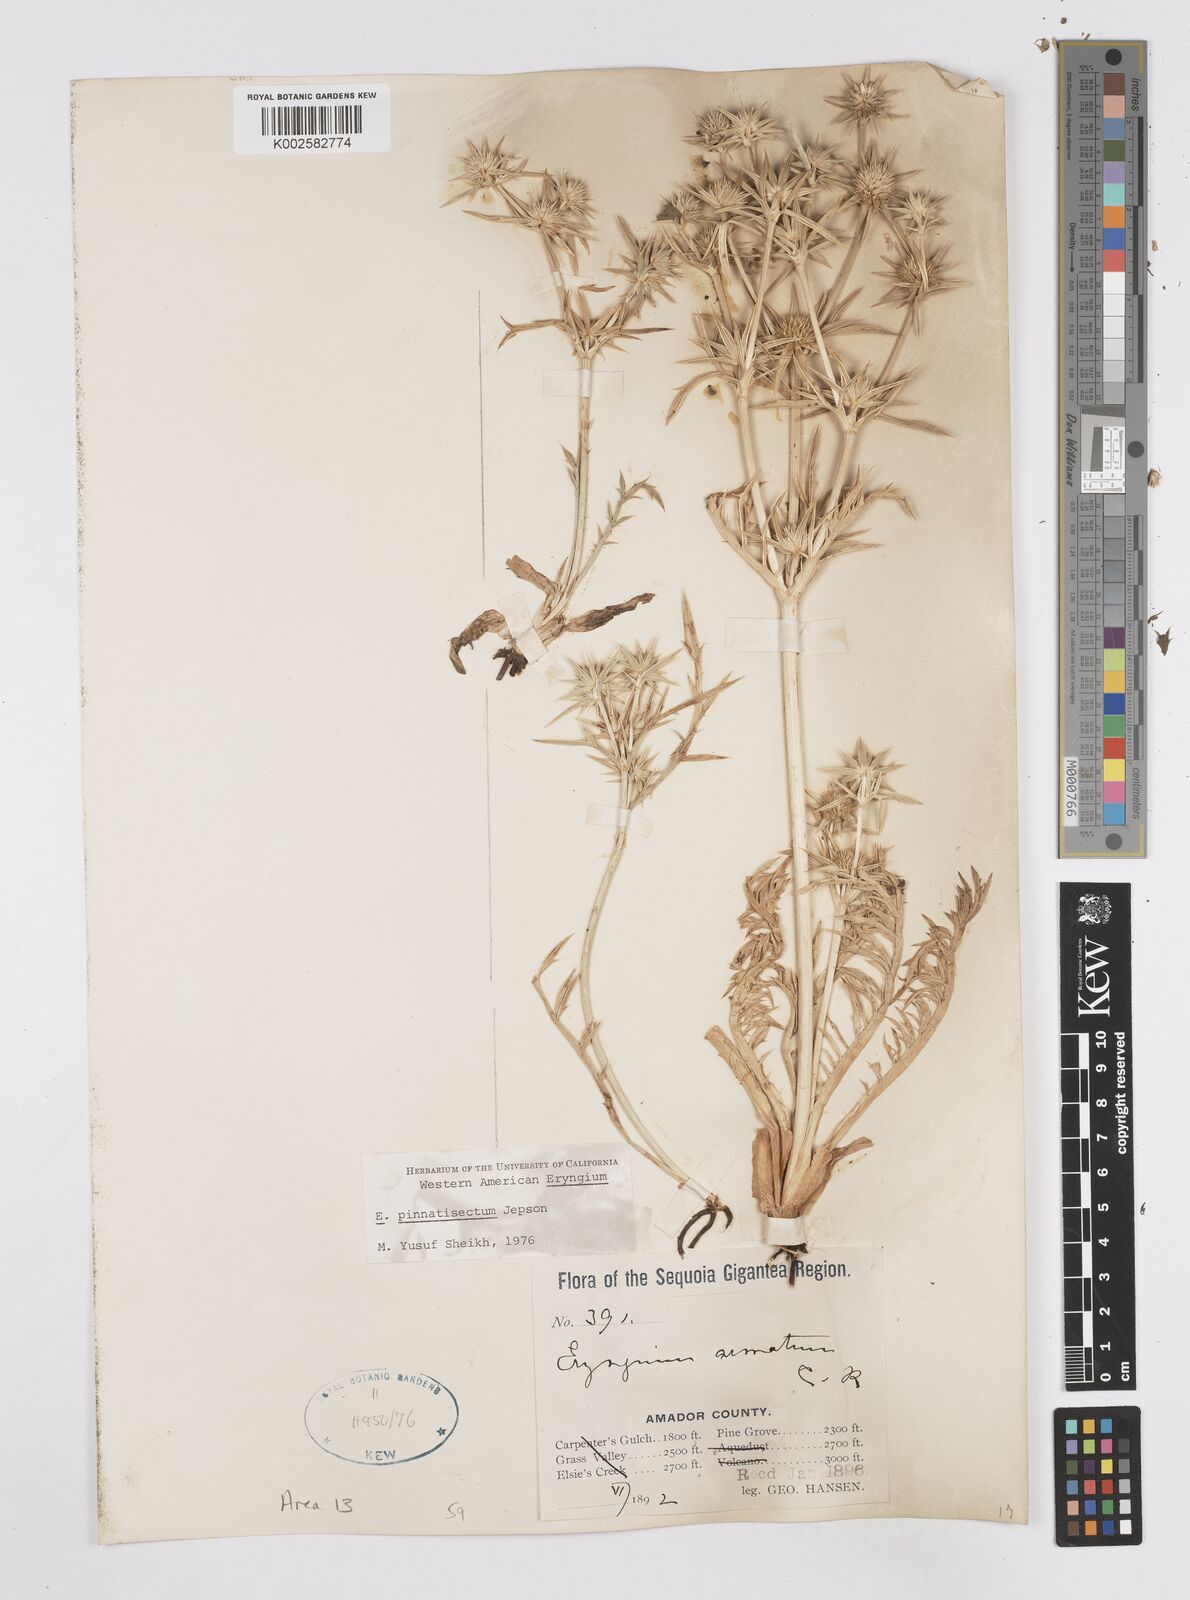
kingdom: Plantae
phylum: Tracheophyta
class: Magnoliopsida
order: Apiales
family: Apiaceae
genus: Eryngium
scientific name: Eryngium pinnatisectum
